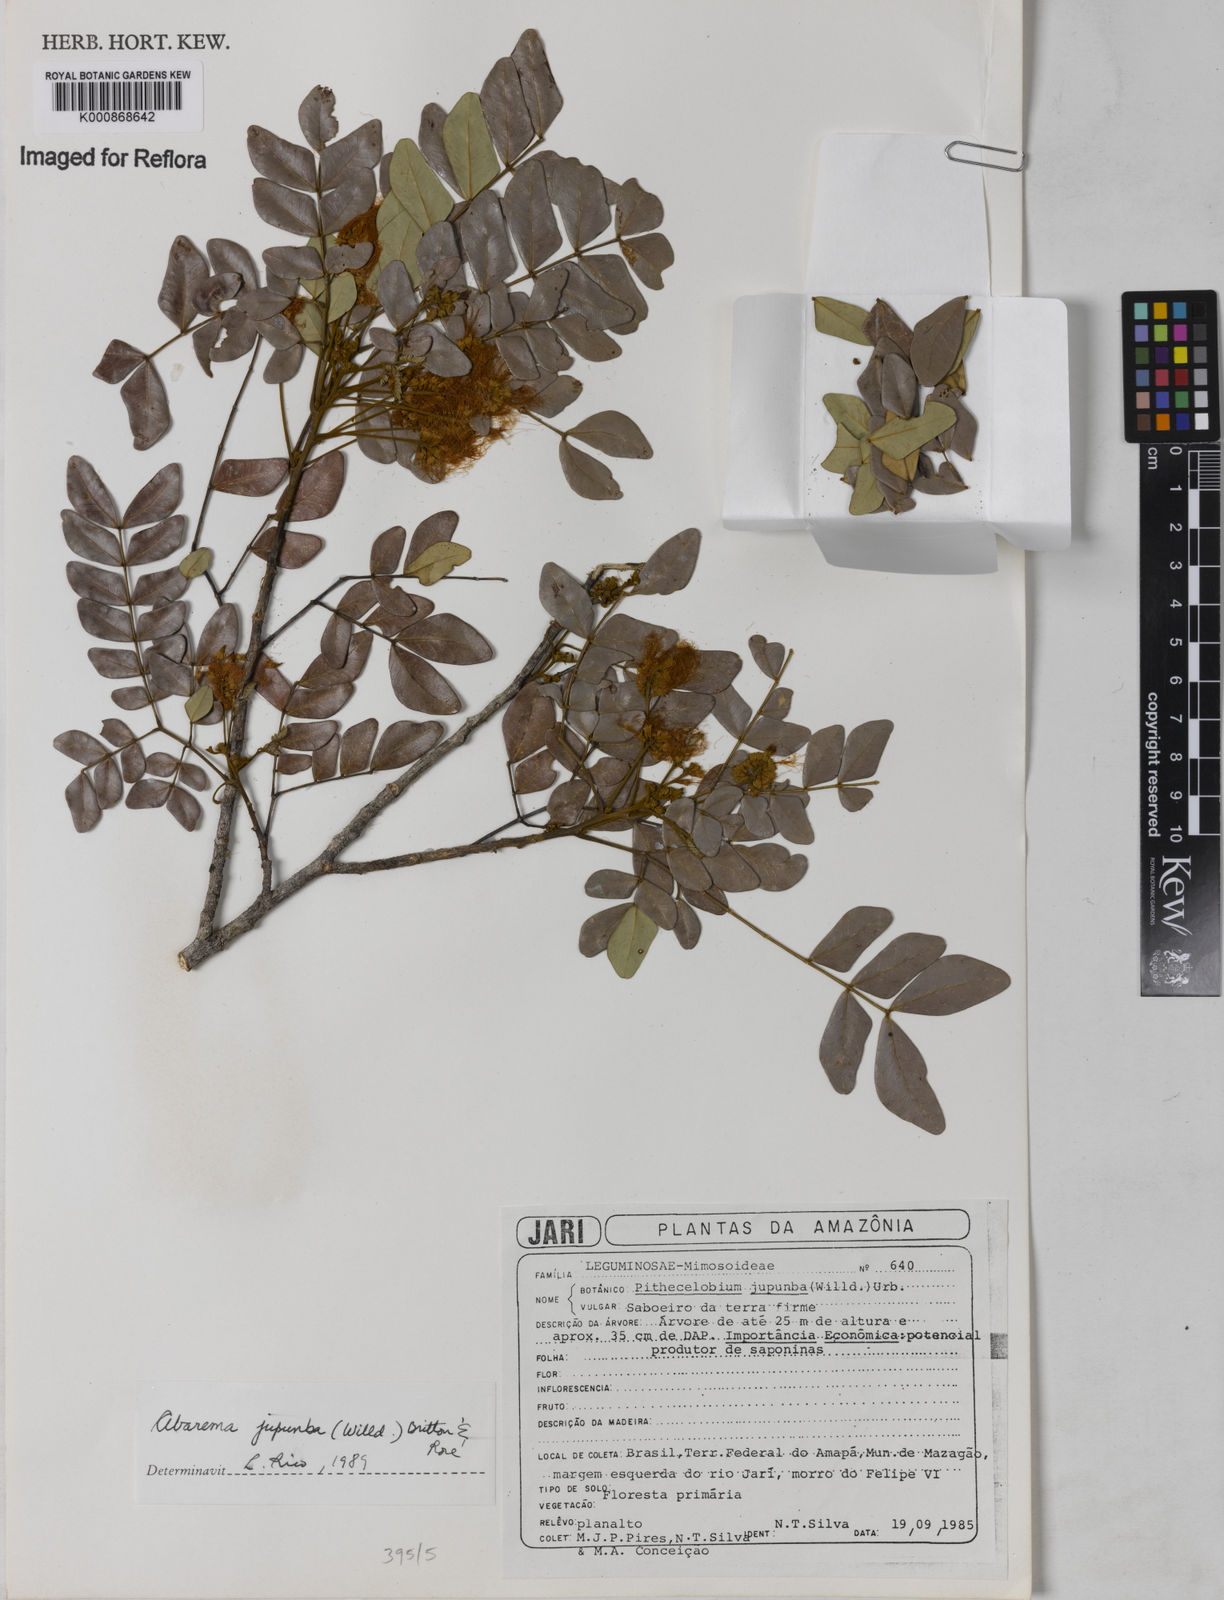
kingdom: Plantae
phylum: Tracheophyta
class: Magnoliopsida
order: Fabales
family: Fabaceae
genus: Jupunba
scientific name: Jupunba trapezifolia
